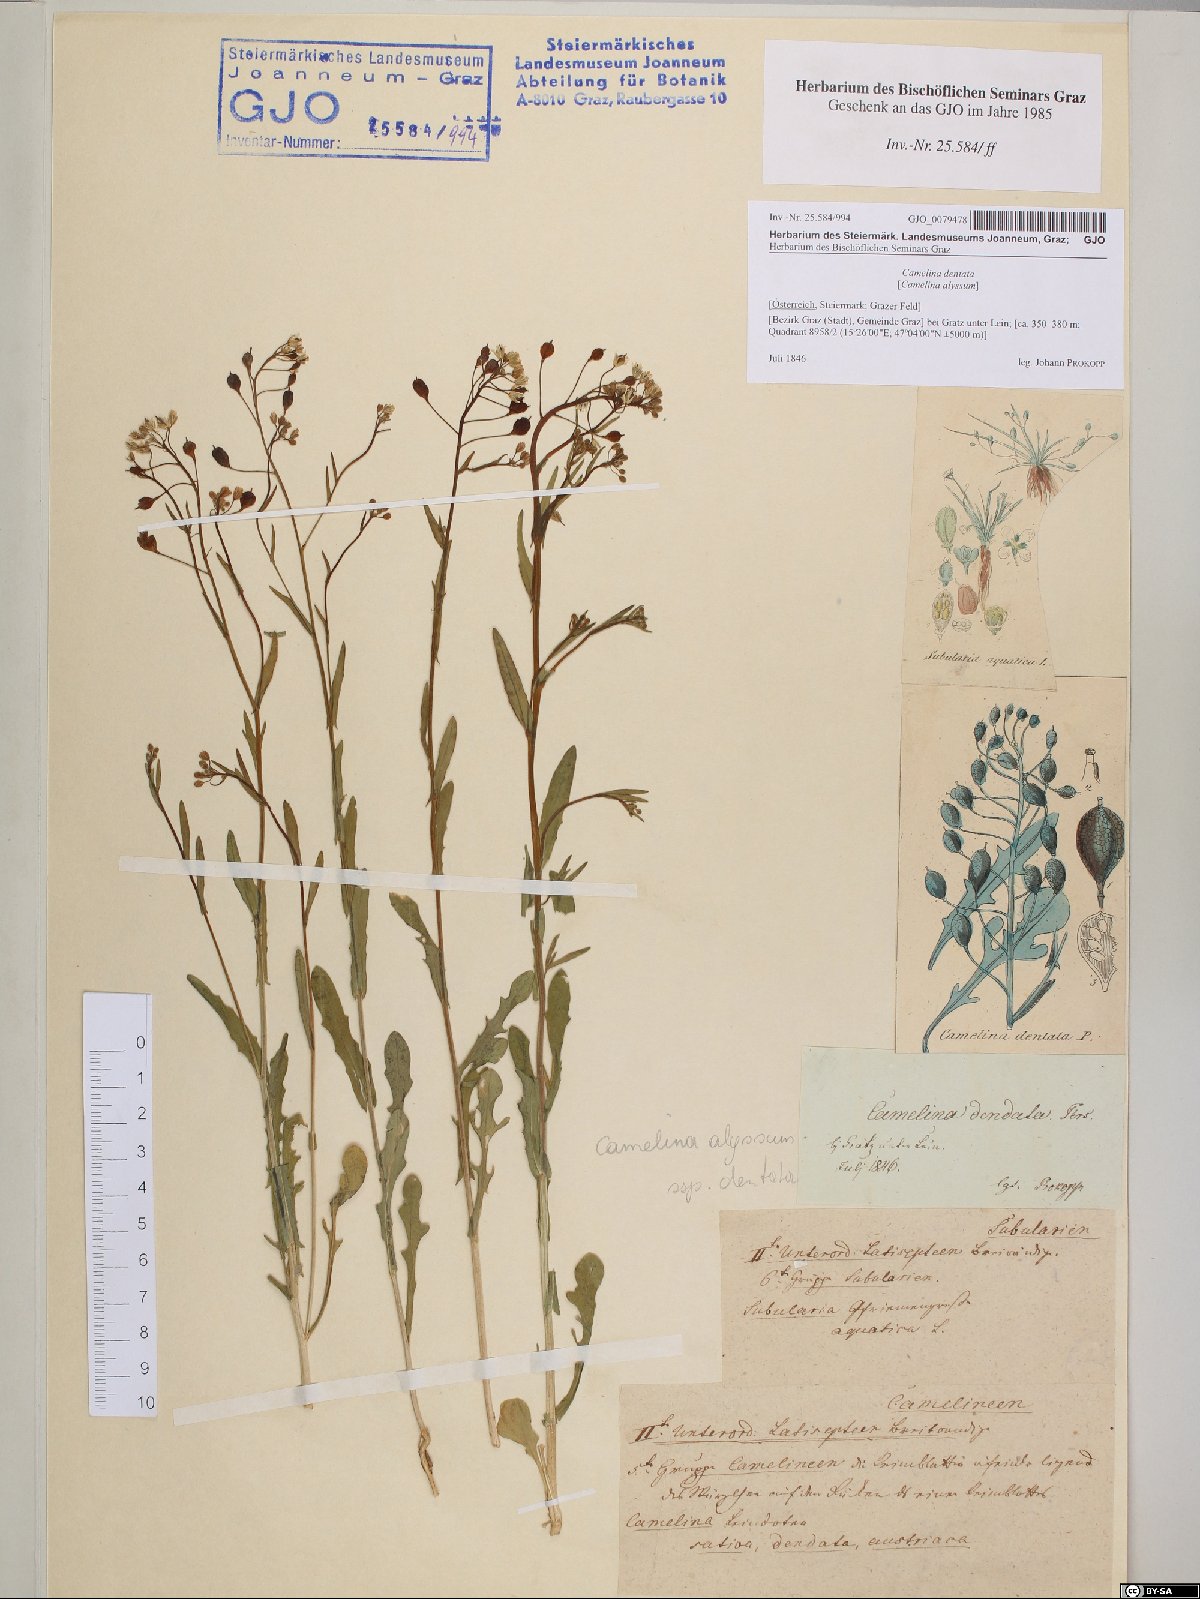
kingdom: Plantae
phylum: Tracheophyta
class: Magnoliopsida
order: Brassicales
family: Brassicaceae
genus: Camelina
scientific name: Camelina alyssum
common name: Gold-of-pleasure
